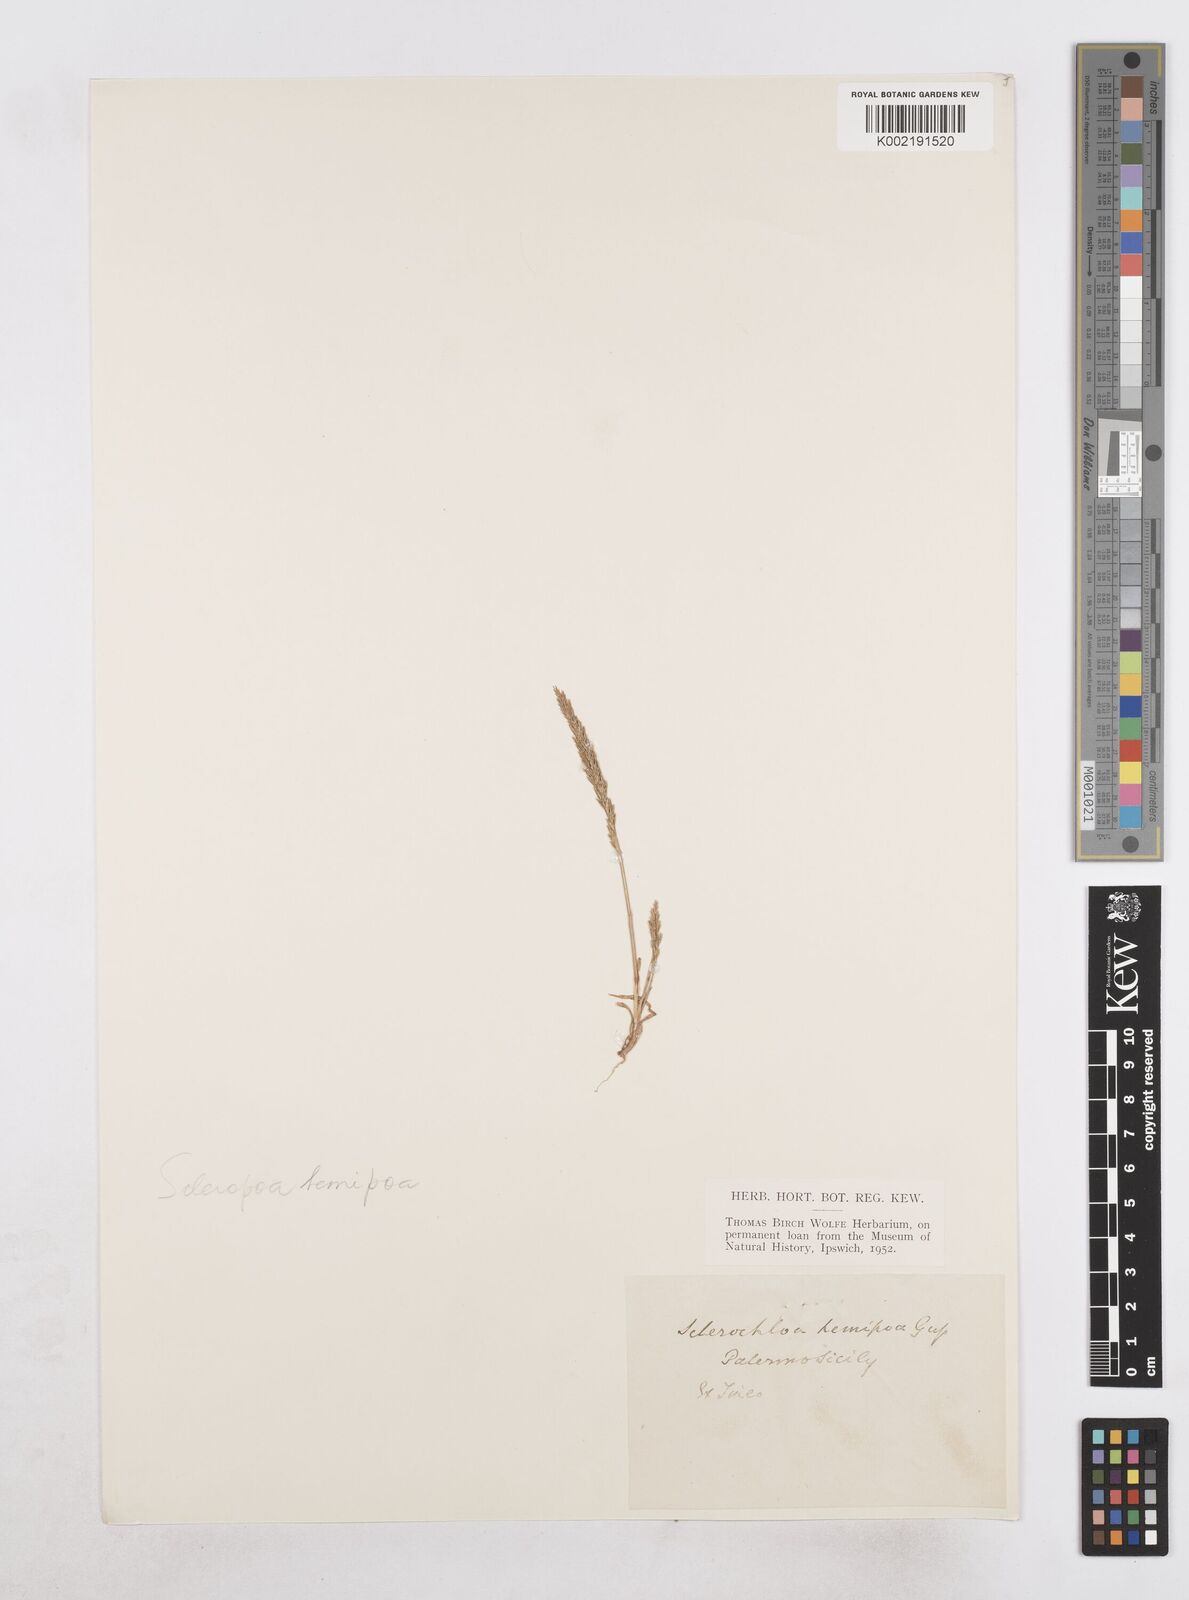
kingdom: Plantae
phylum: Tracheophyta
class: Liliopsida
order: Poales
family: Poaceae
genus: Catapodium
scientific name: Catapodium hemipoa
